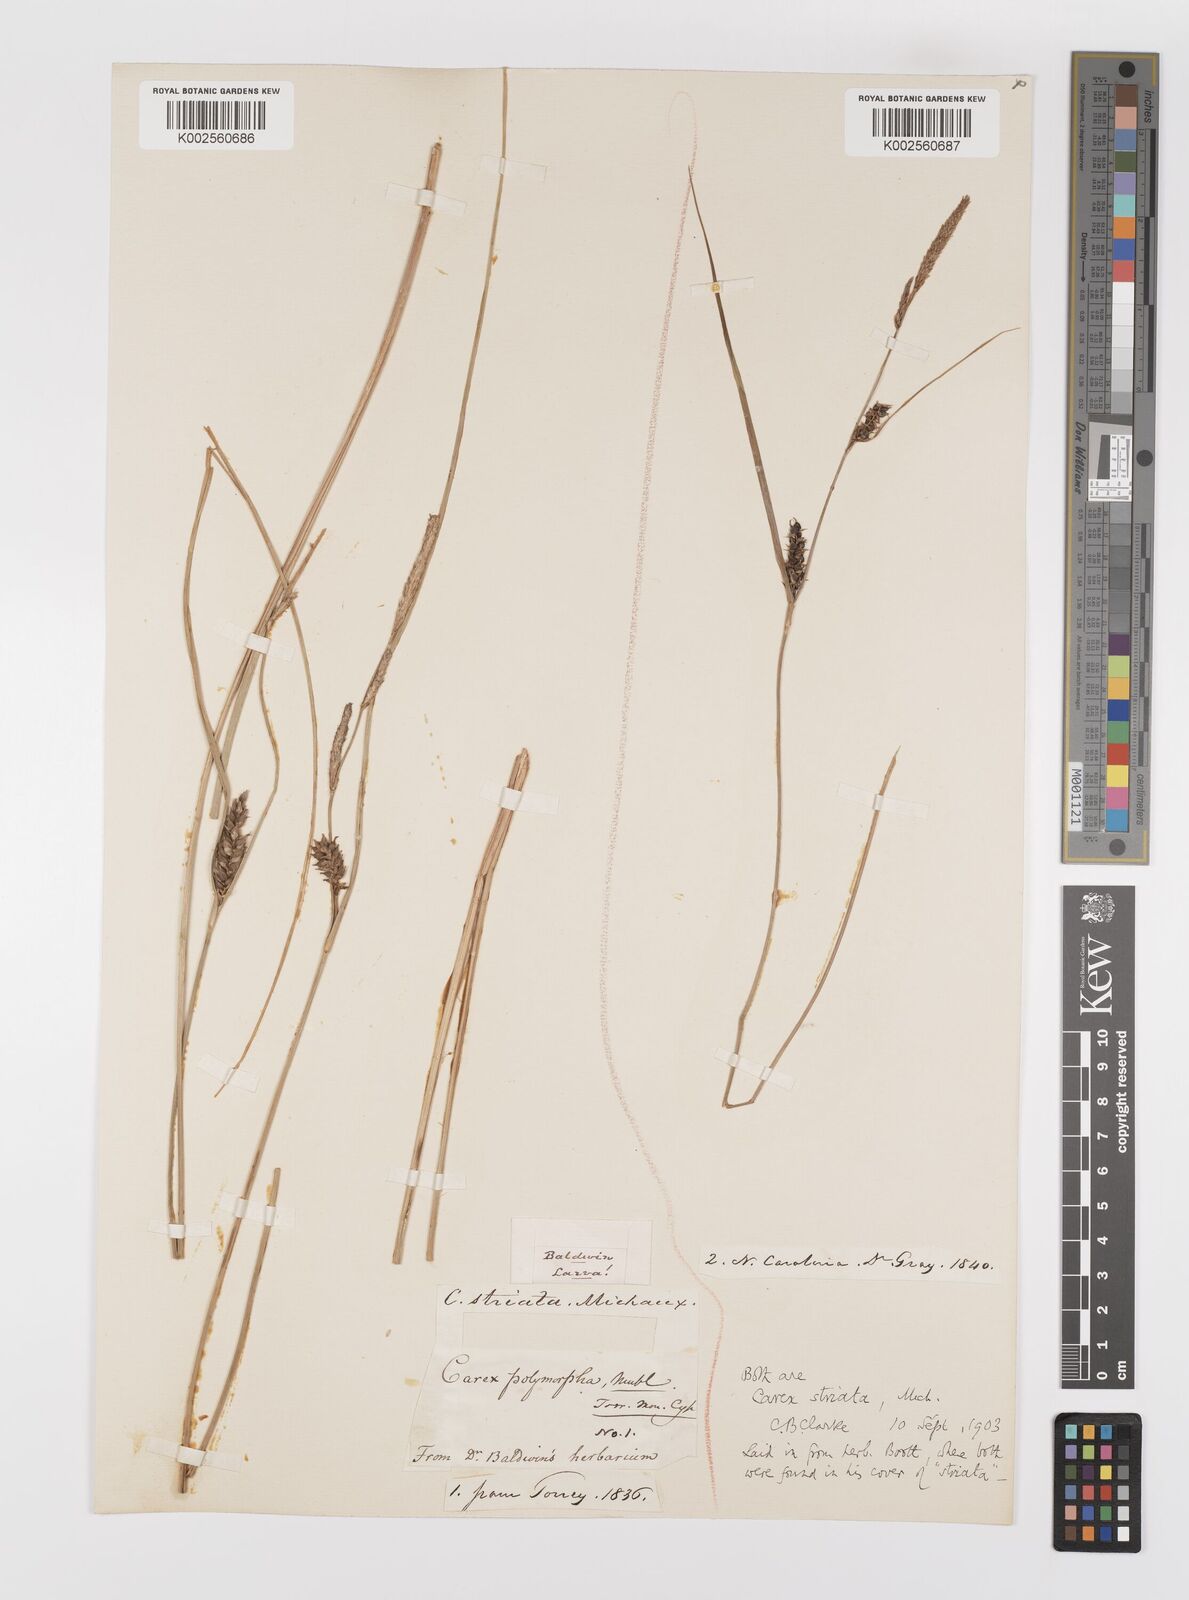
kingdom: Plantae
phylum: Tracheophyta
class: Liliopsida
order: Poales
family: Cyperaceae
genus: Carex
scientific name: Carex striata
